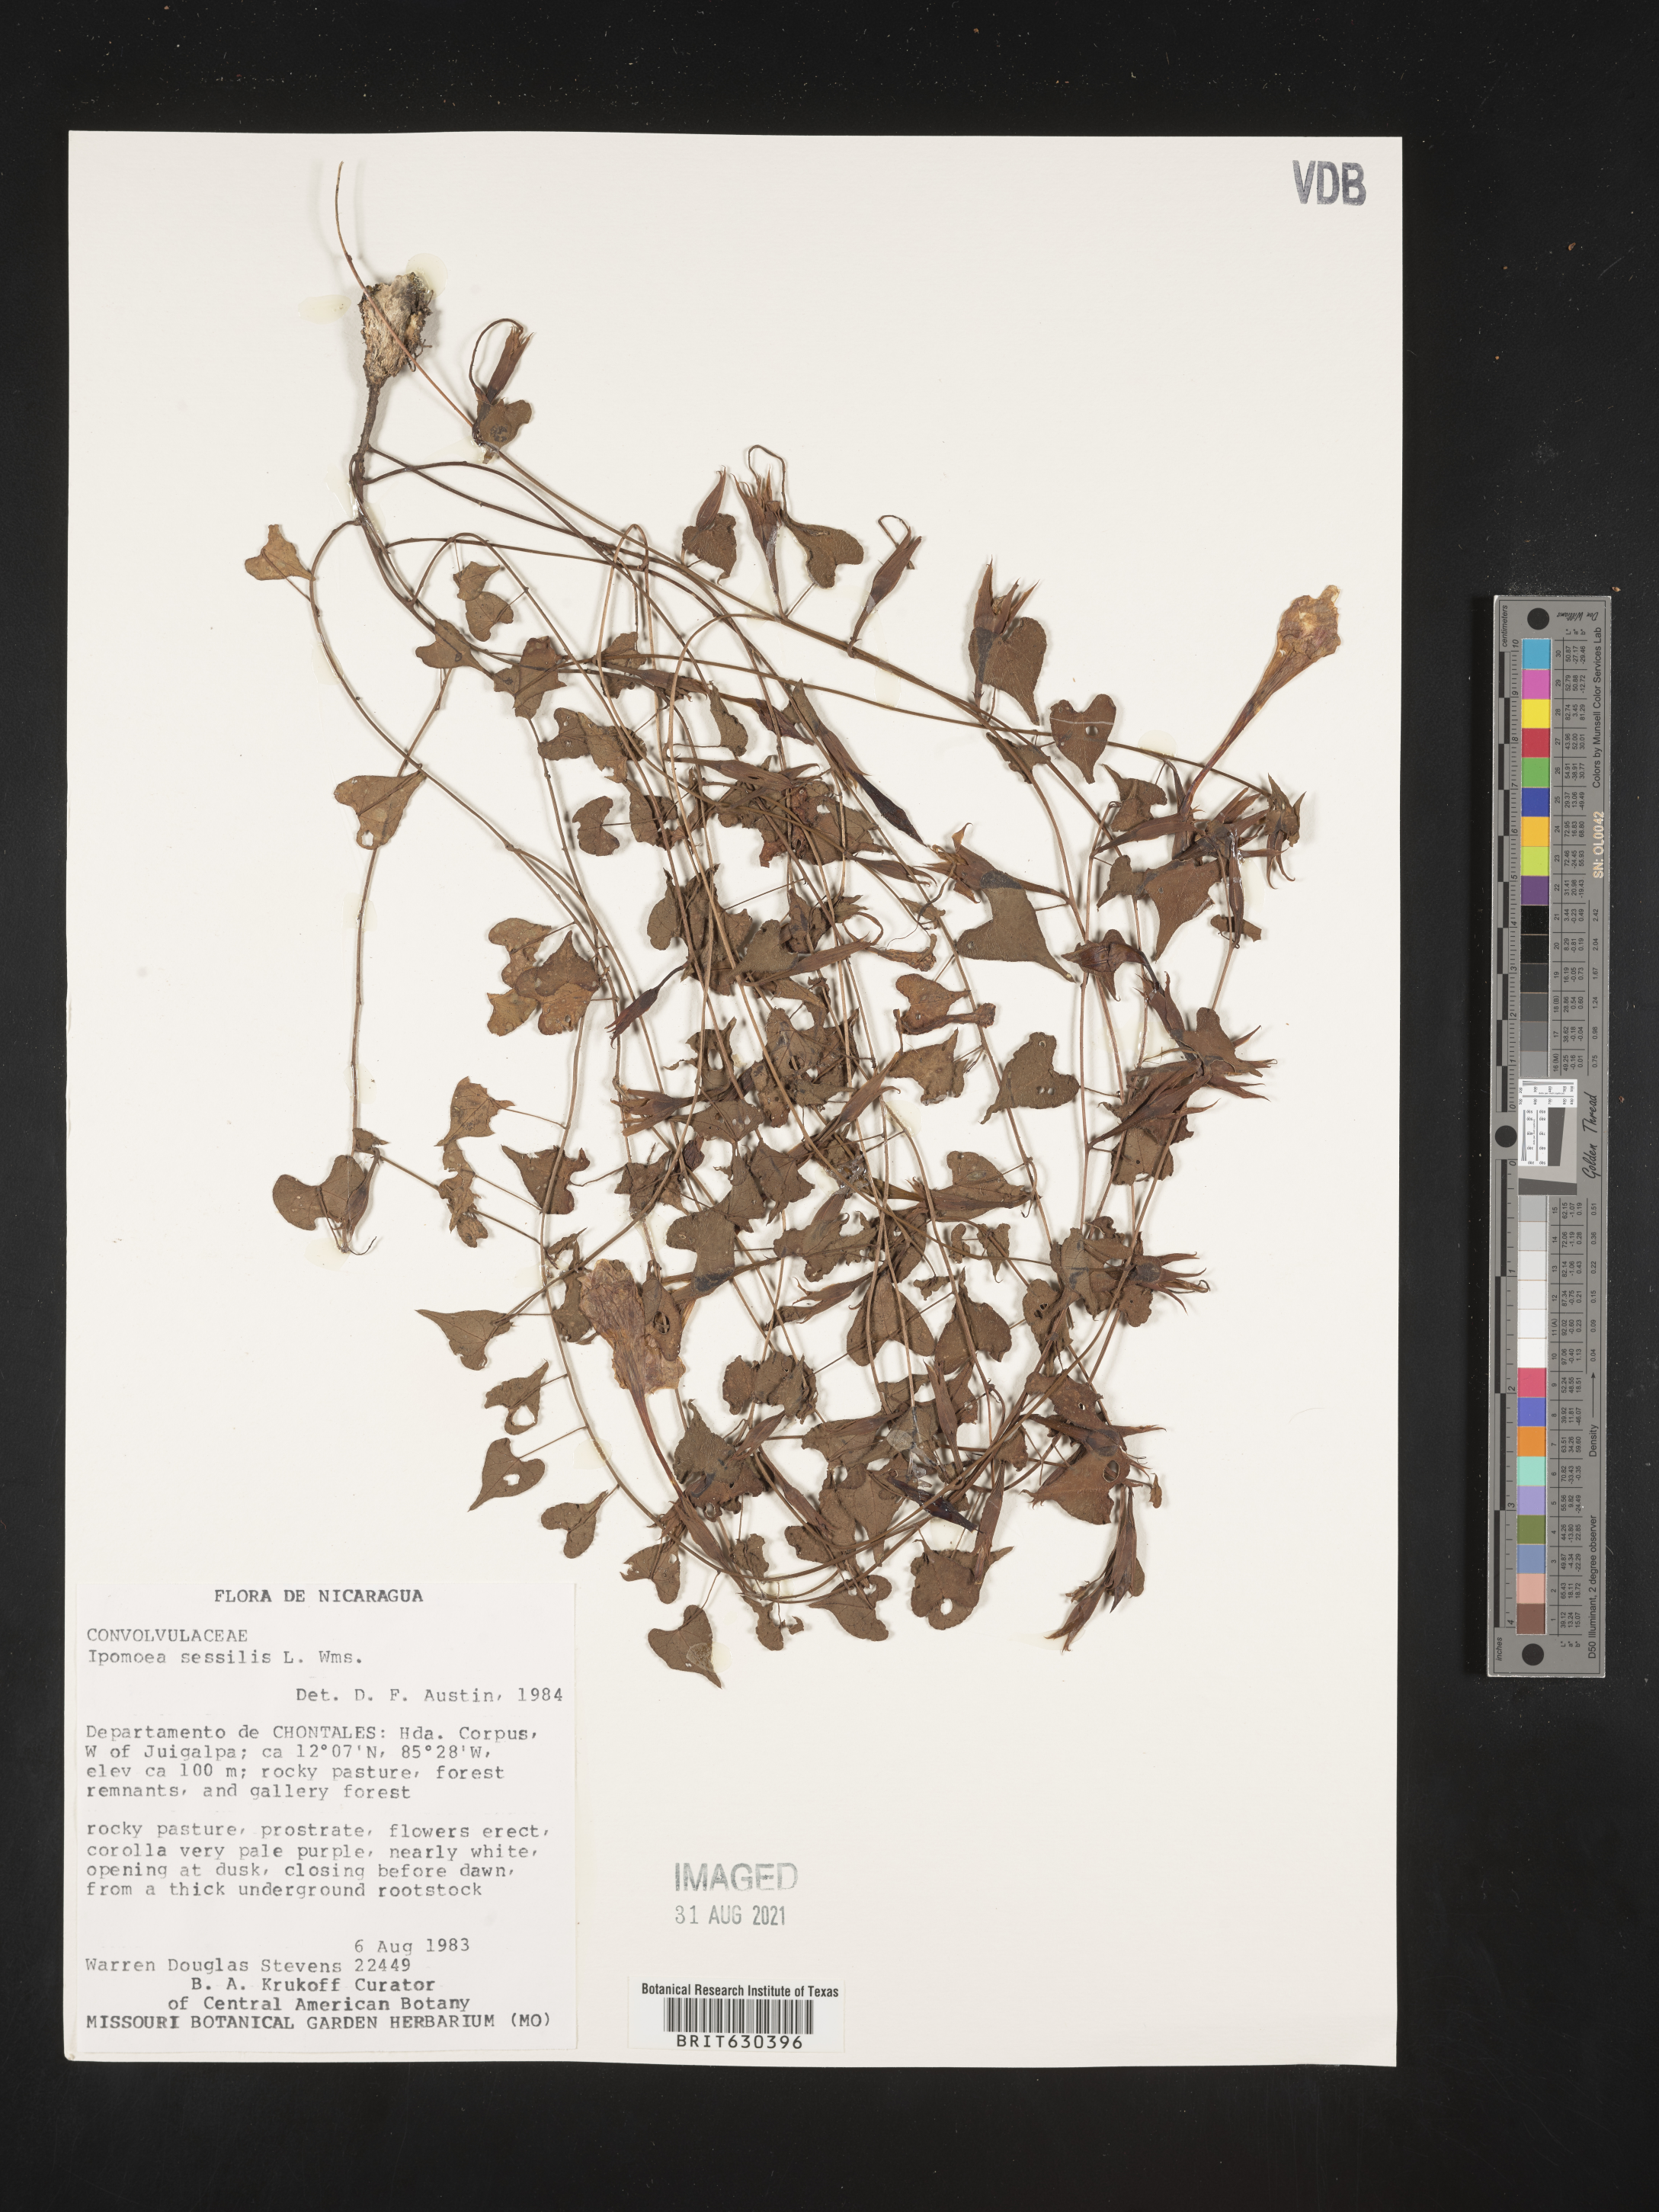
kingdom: Plantae
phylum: Tracheophyta
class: Magnoliopsida
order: Solanales
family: Convolvulaceae
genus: Ipomoea
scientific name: Ipomoea thurberi
